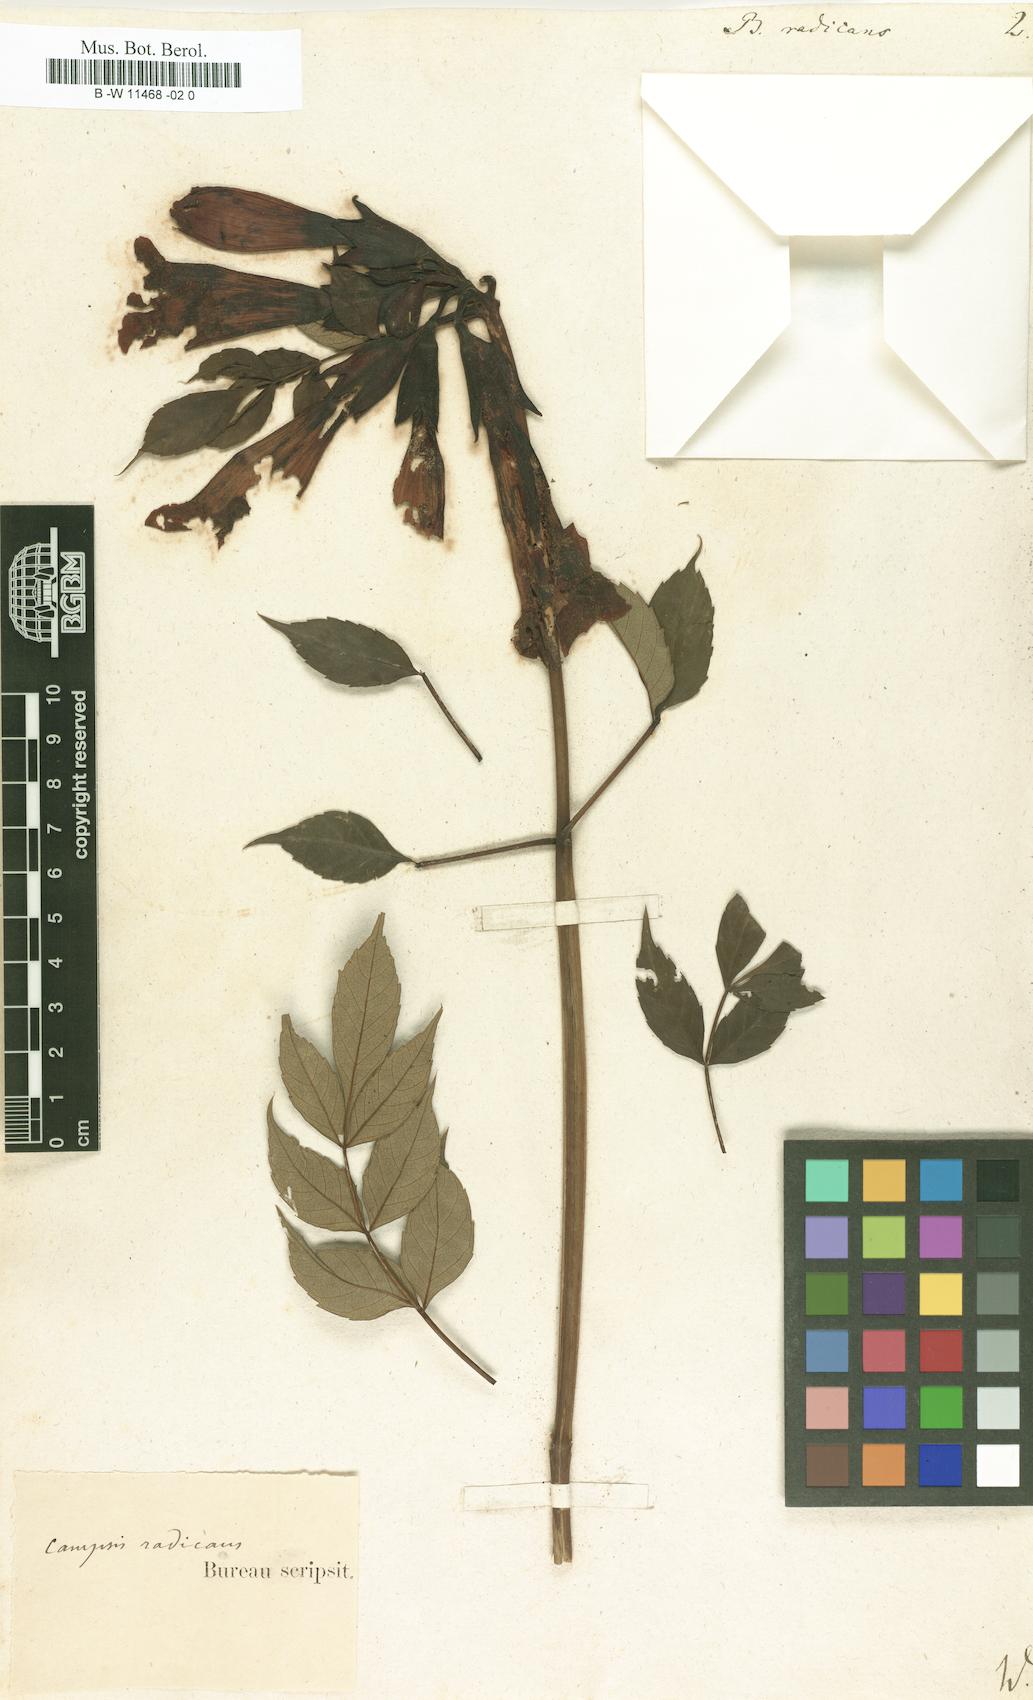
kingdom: Plantae
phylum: Tracheophyta
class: Magnoliopsida
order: Lamiales
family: Bignoniaceae
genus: Campsis
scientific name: Campsis radicans
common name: Trumpet-creeper
